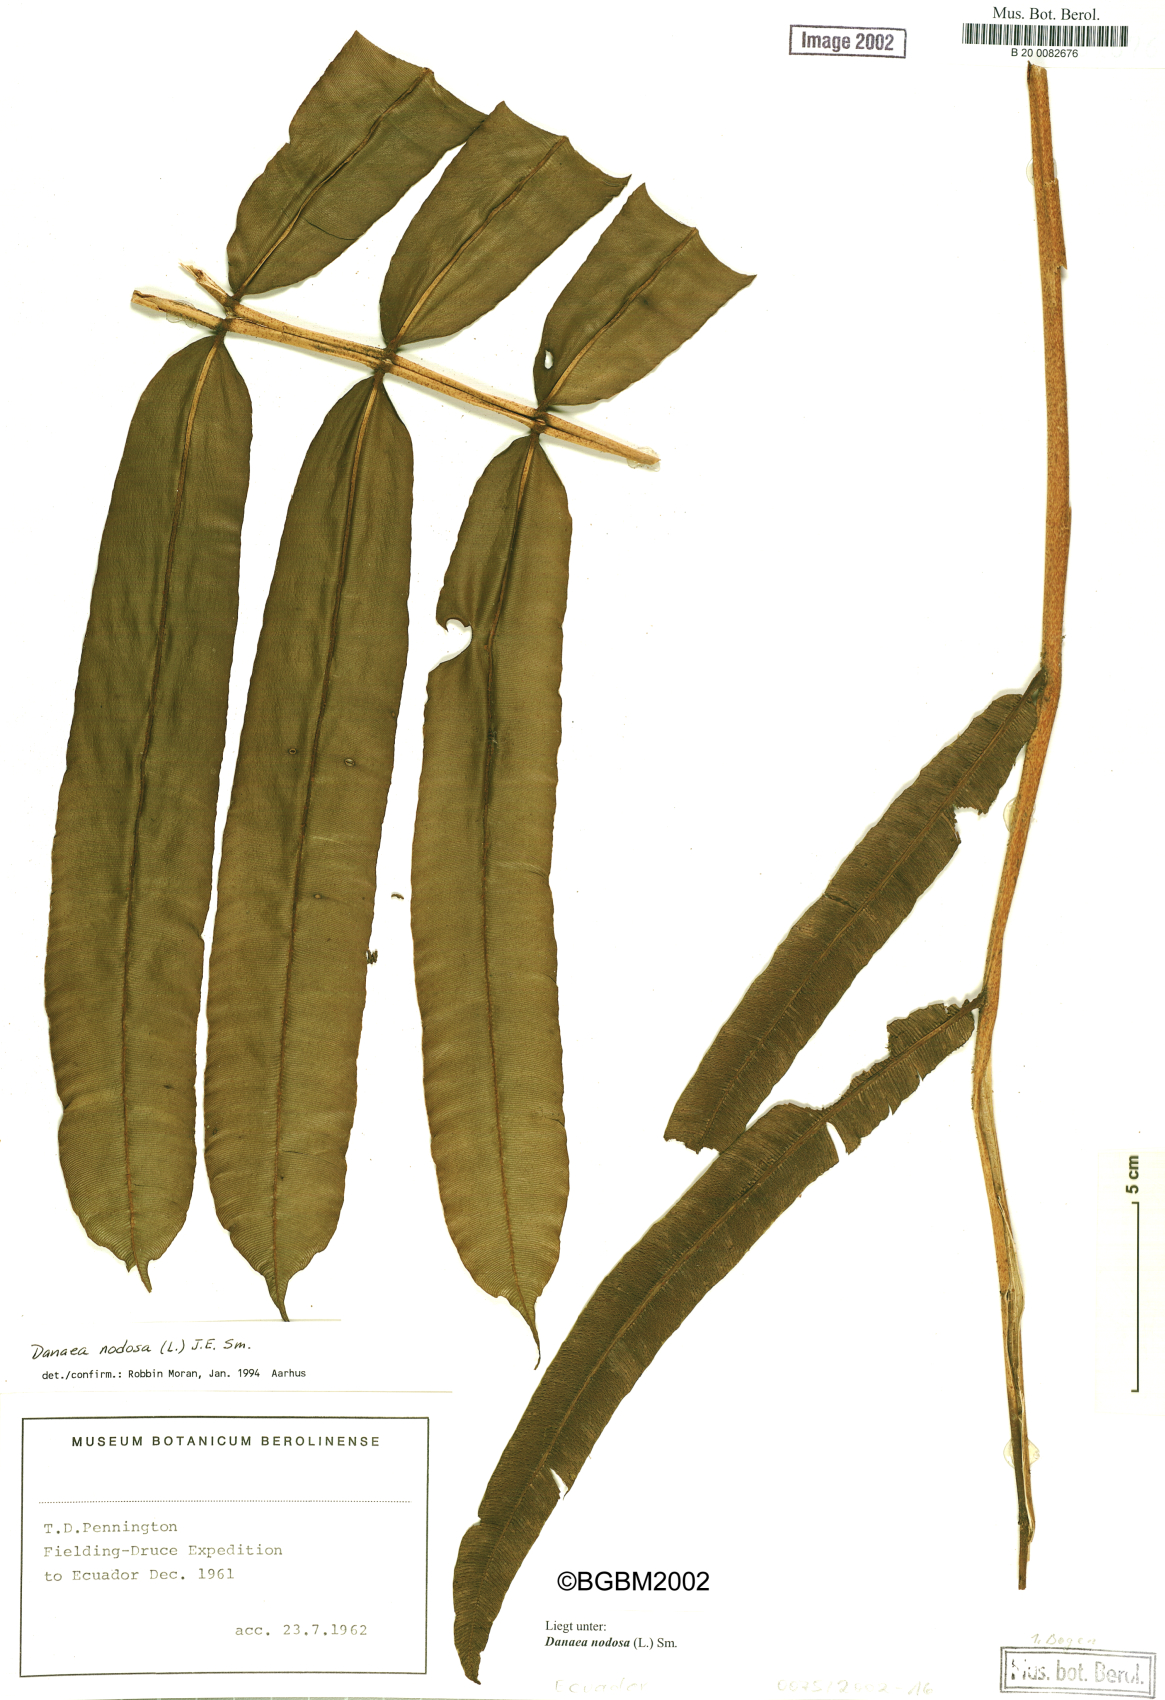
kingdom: Plantae
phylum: Tracheophyta
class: Polypodiopsida
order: Marattiales
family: Marattiaceae
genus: Danaea
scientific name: Danaea erecta
